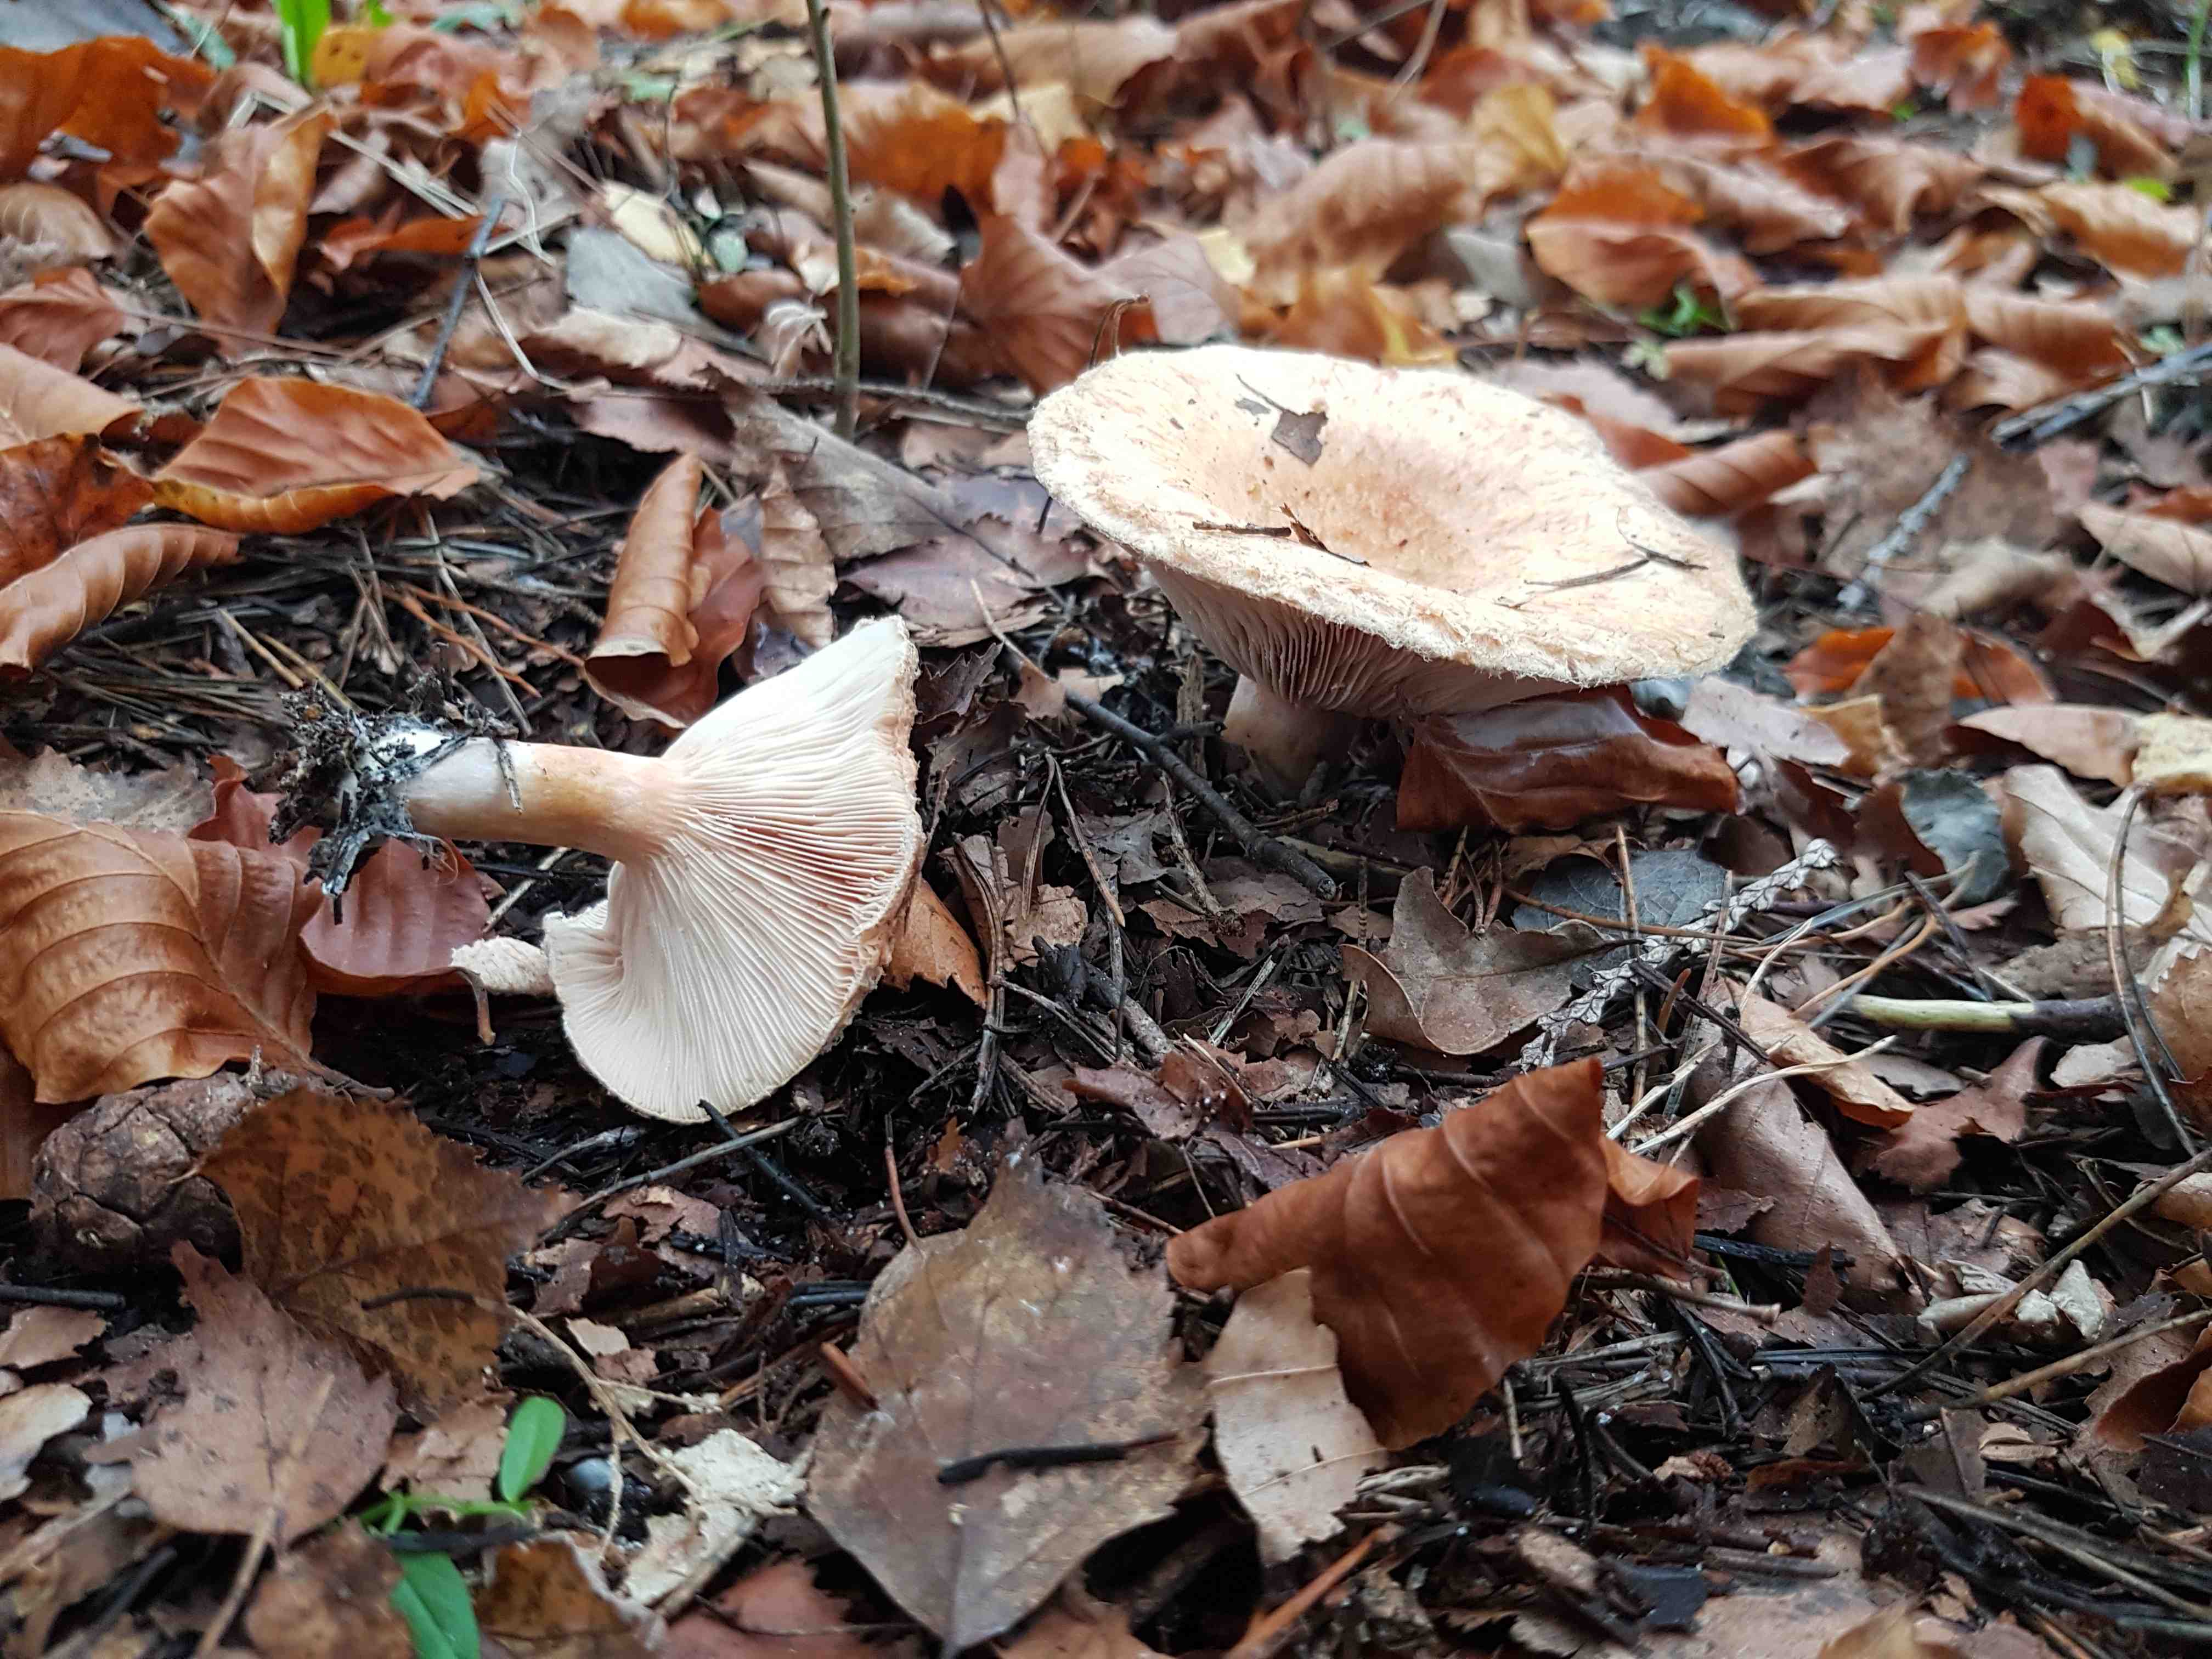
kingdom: Fungi
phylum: Basidiomycota
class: Agaricomycetes
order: Russulales
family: Russulaceae
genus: Lactarius
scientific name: Lactarius pubescens
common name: dunet mælkehat
